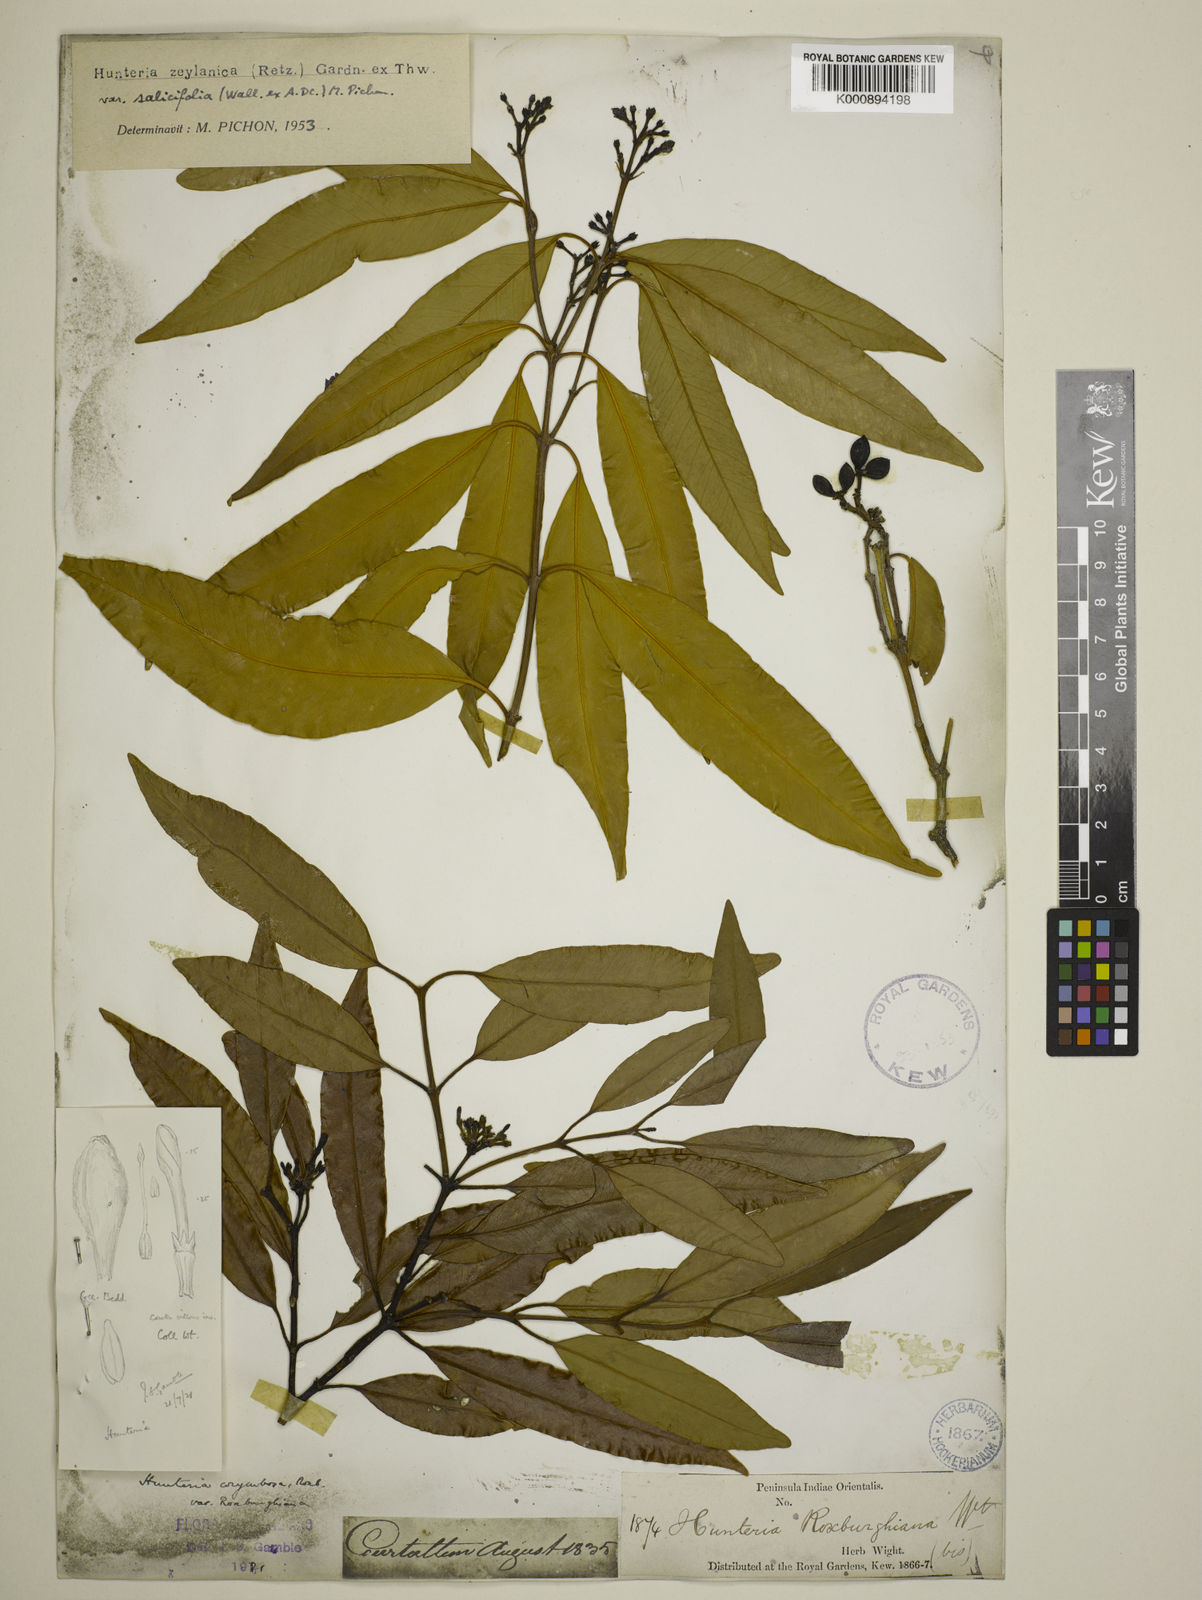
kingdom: Plantae
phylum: Tracheophyta
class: Magnoliopsida
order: Gentianales
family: Apocynaceae
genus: Hunteria
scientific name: Hunteria zeylanica
